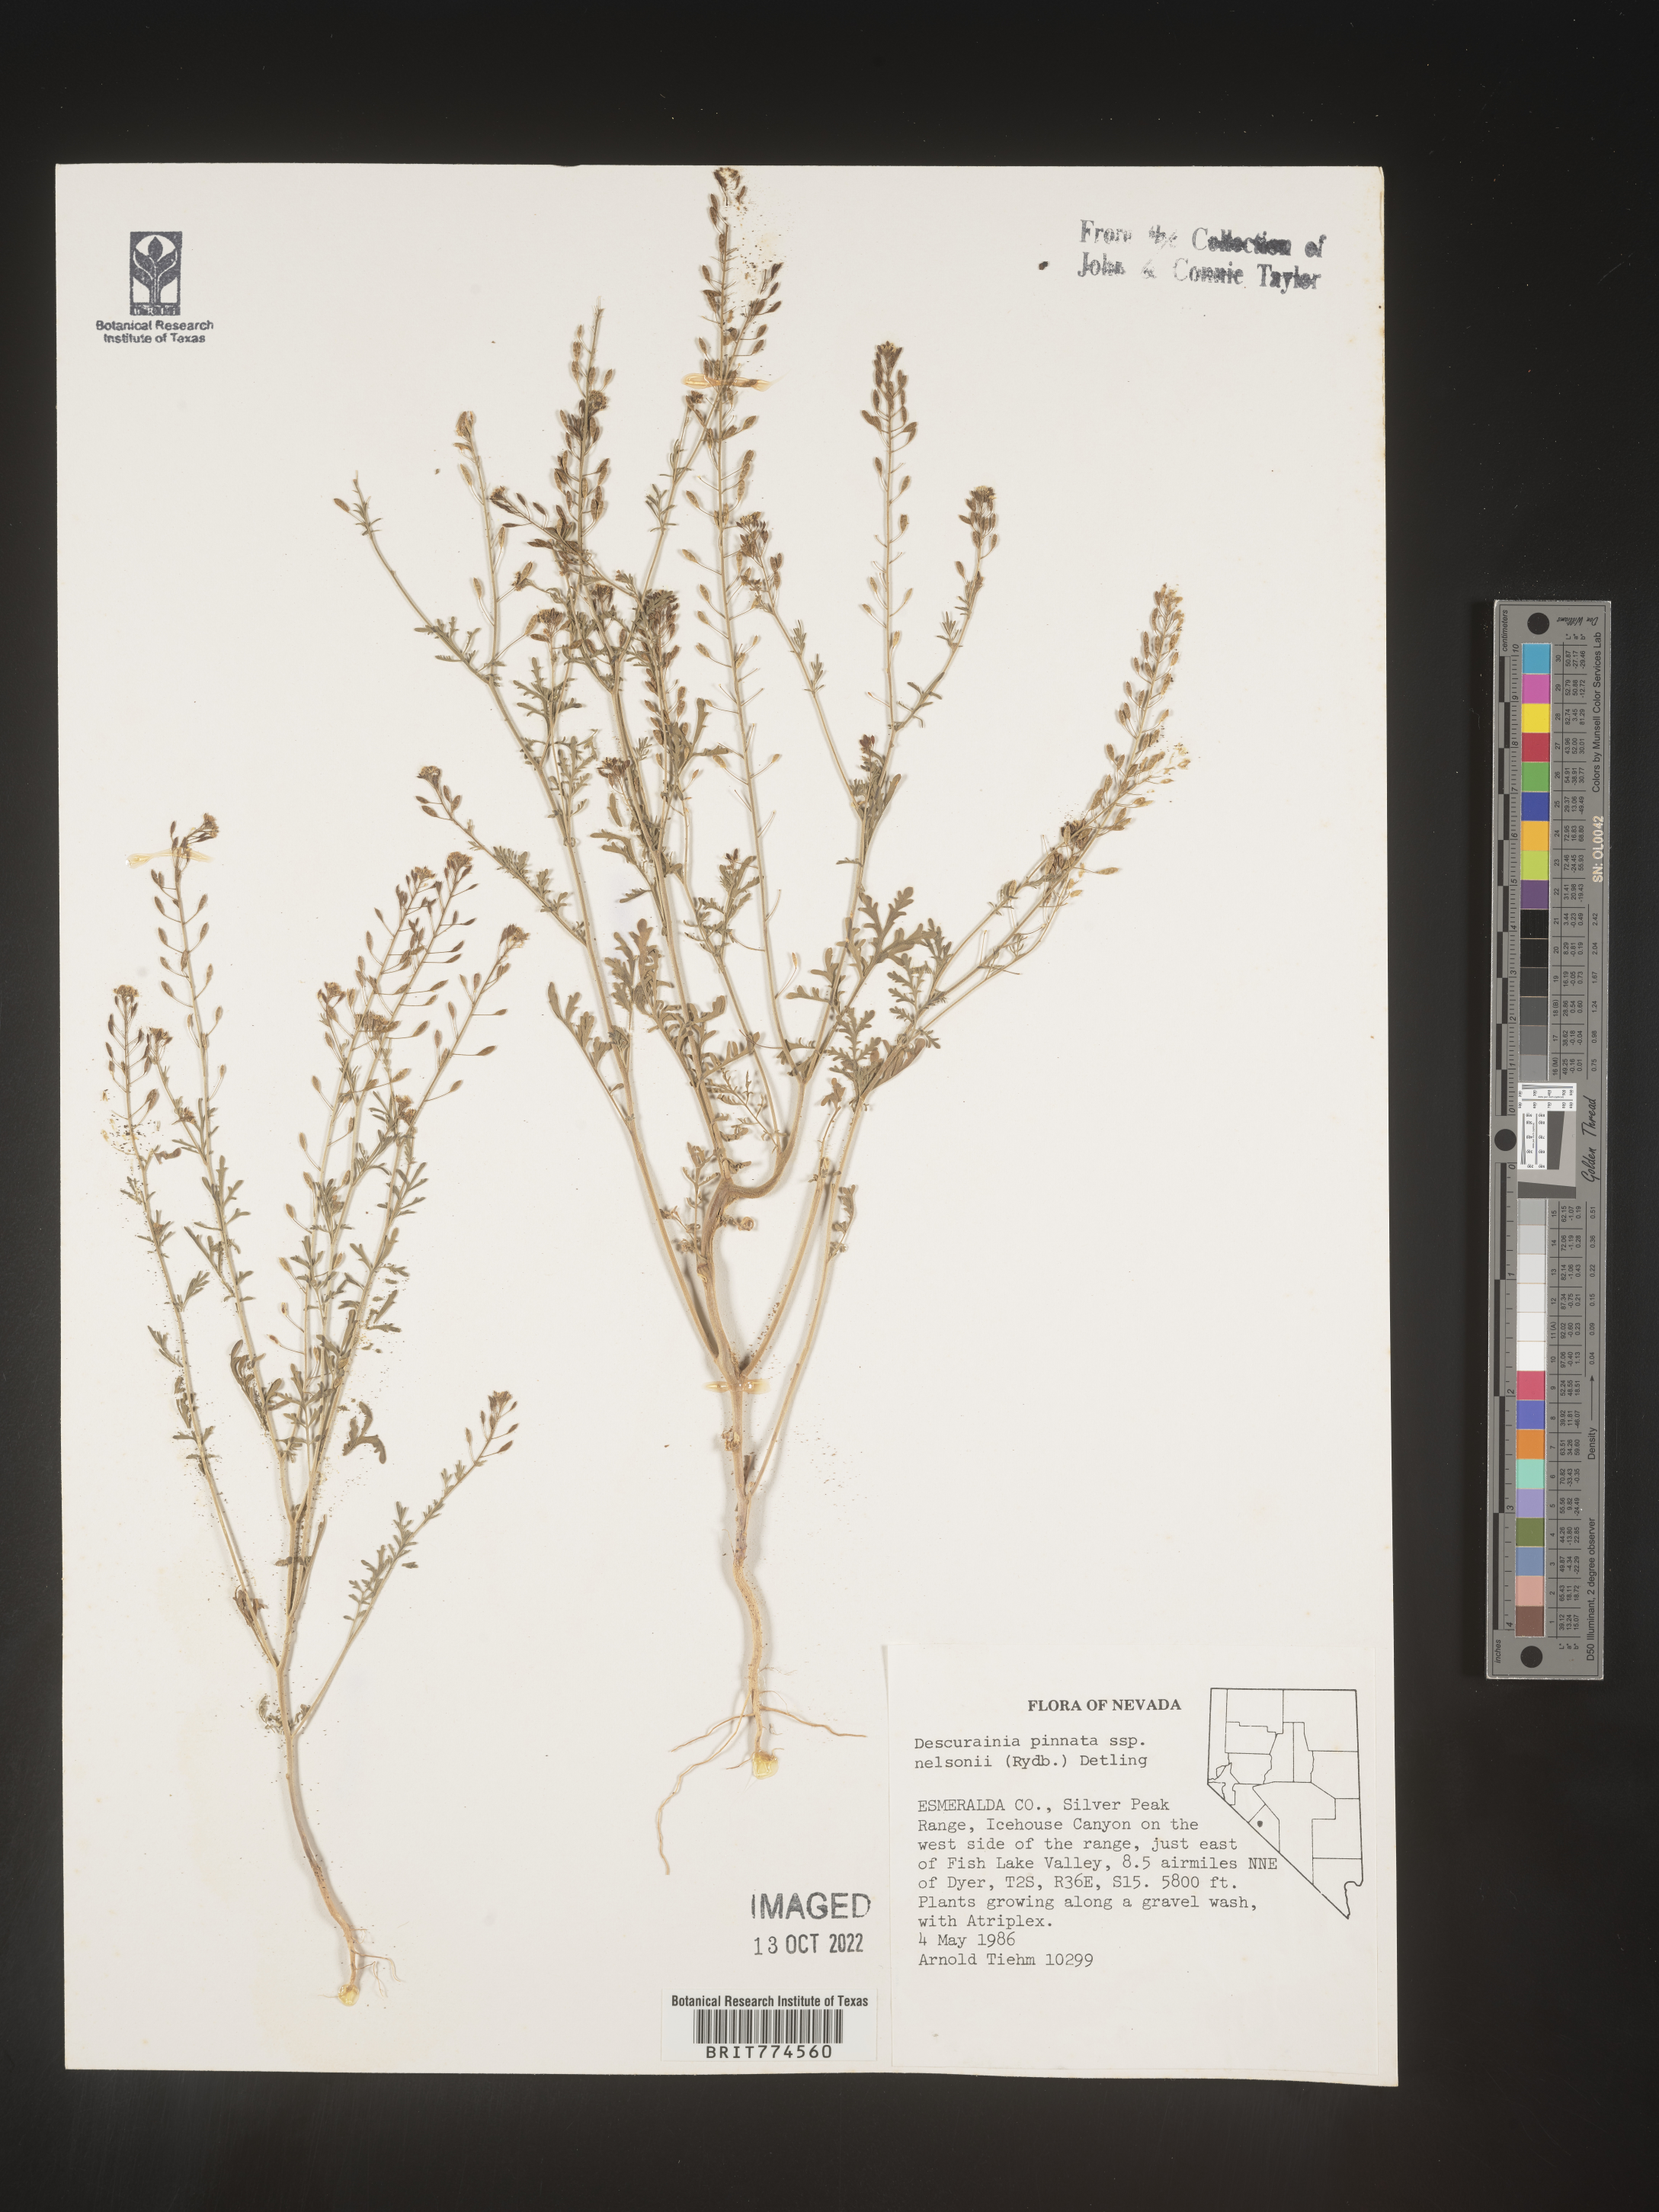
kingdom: Plantae
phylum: Tracheophyta
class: Magnoliopsida
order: Brassicales
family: Brassicaceae
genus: Descurainia
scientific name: Descurainia pinnata
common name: Western tansy mustard
